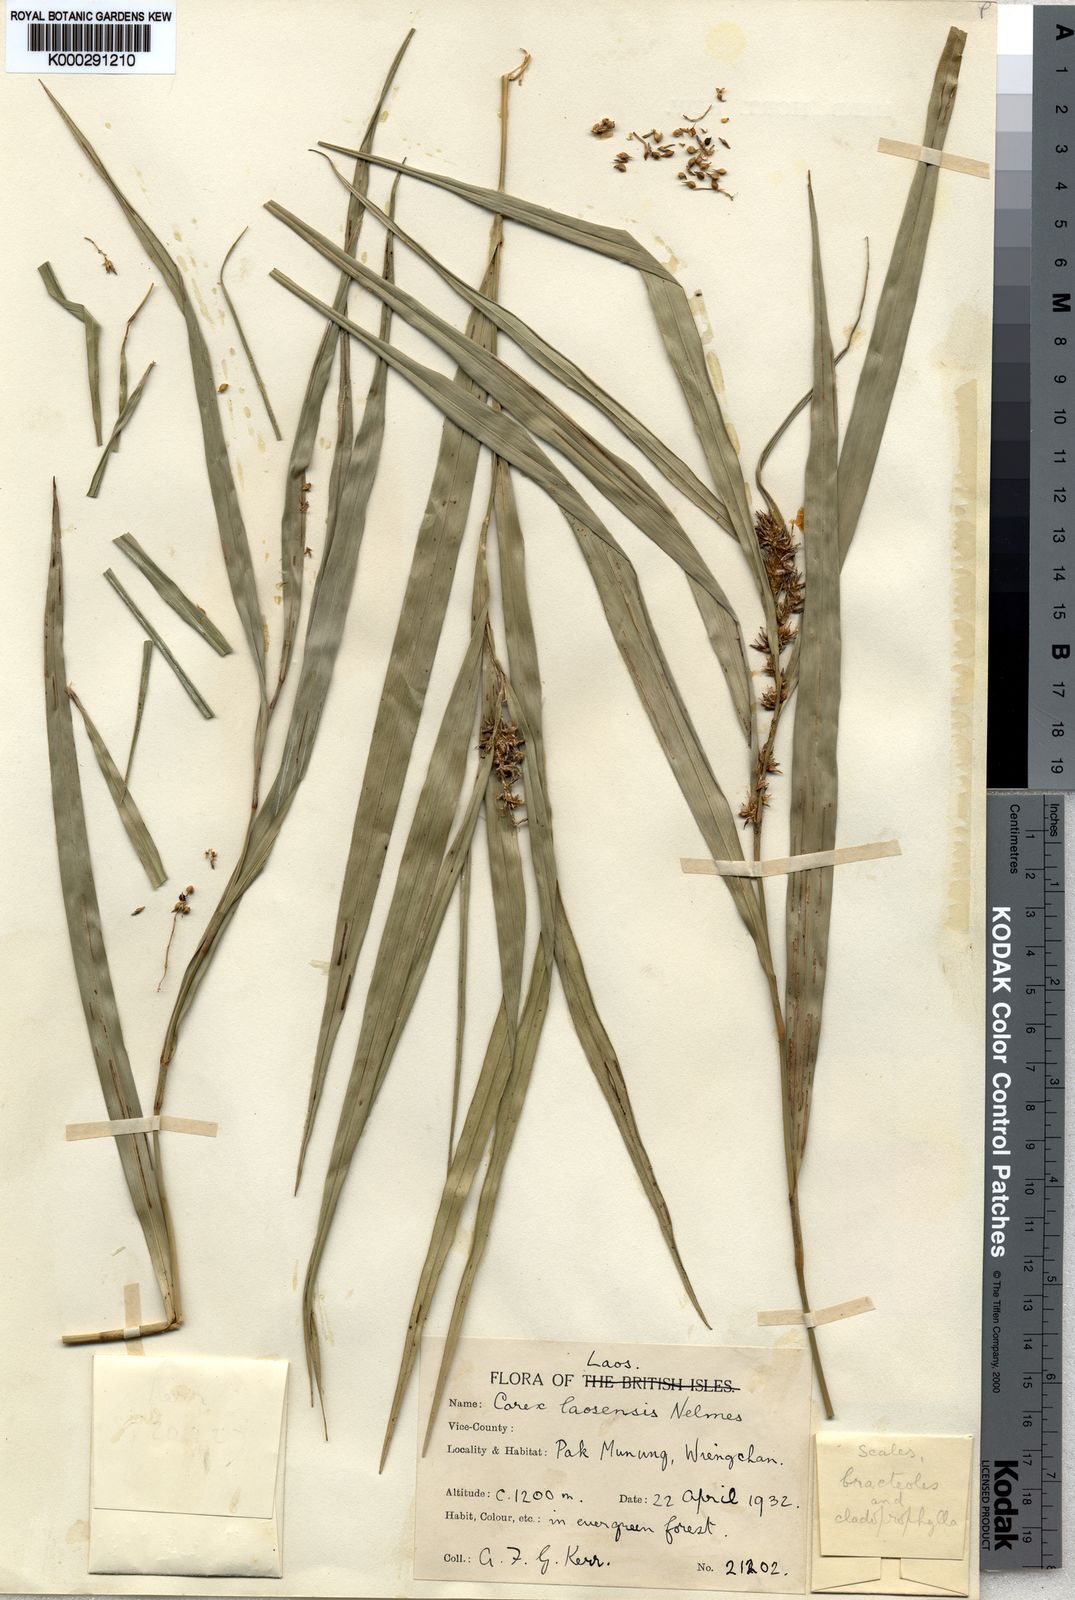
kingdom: Plantae
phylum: Tracheophyta
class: Liliopsida
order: Poales
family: Cyperaceae
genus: Carex
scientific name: Carex laosensis
